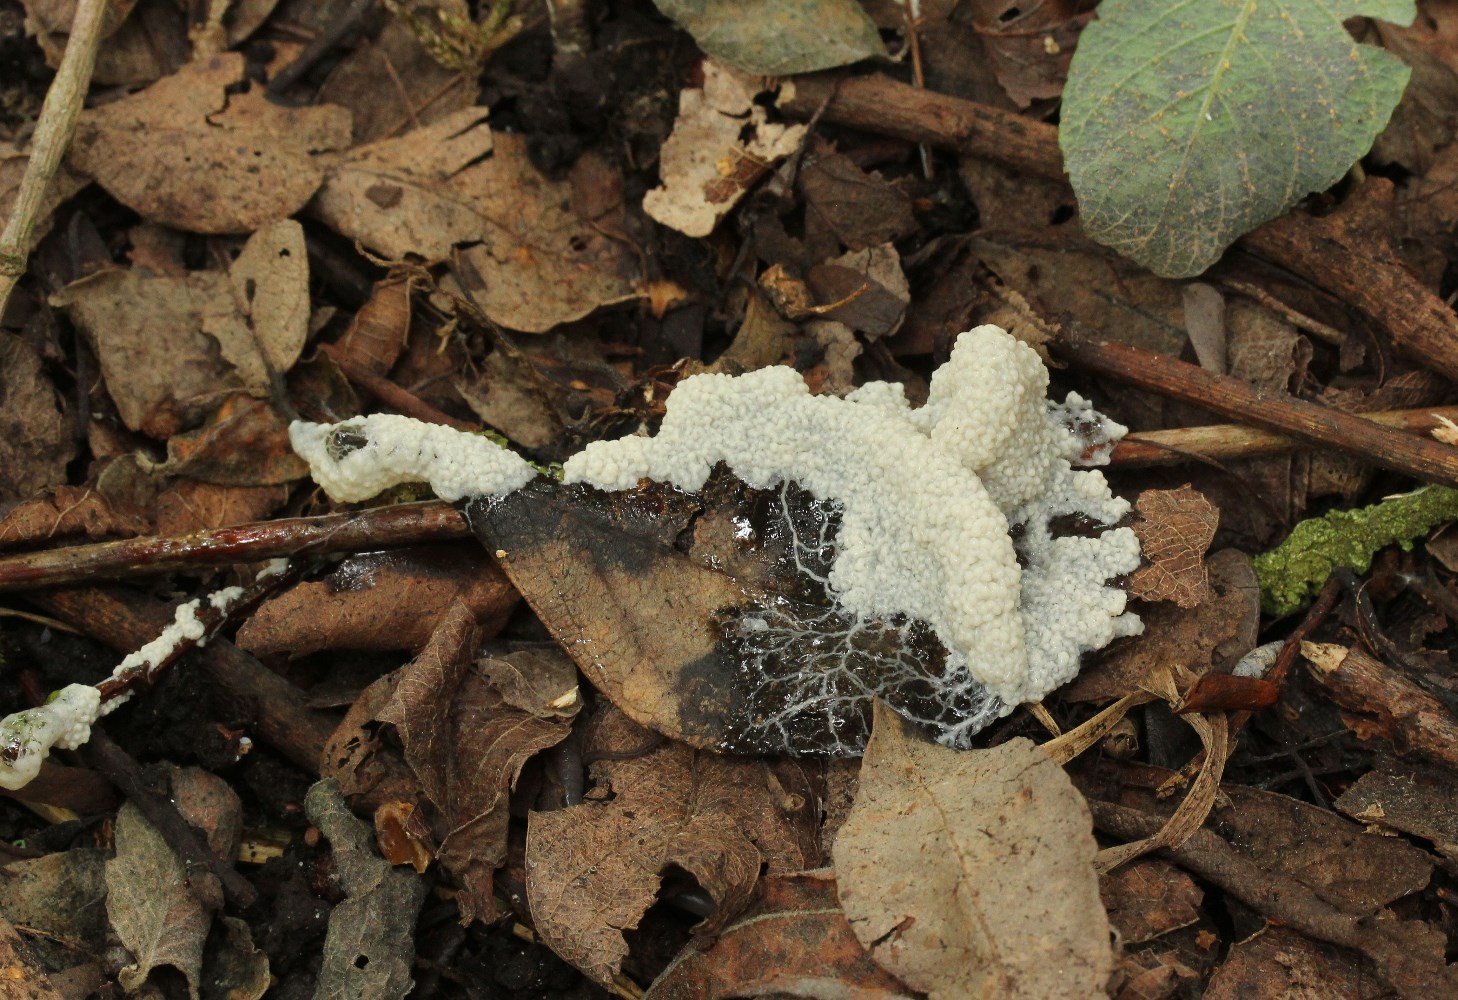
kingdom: Protozoa
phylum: Mycetozoa
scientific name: Mycetozoa
